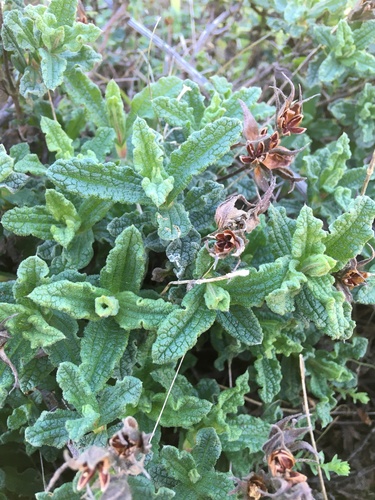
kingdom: Plantae
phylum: Tracheophyta
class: Magnoliopsida
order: Malvales
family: Cistaceae
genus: Cistus
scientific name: Cistus crispus
